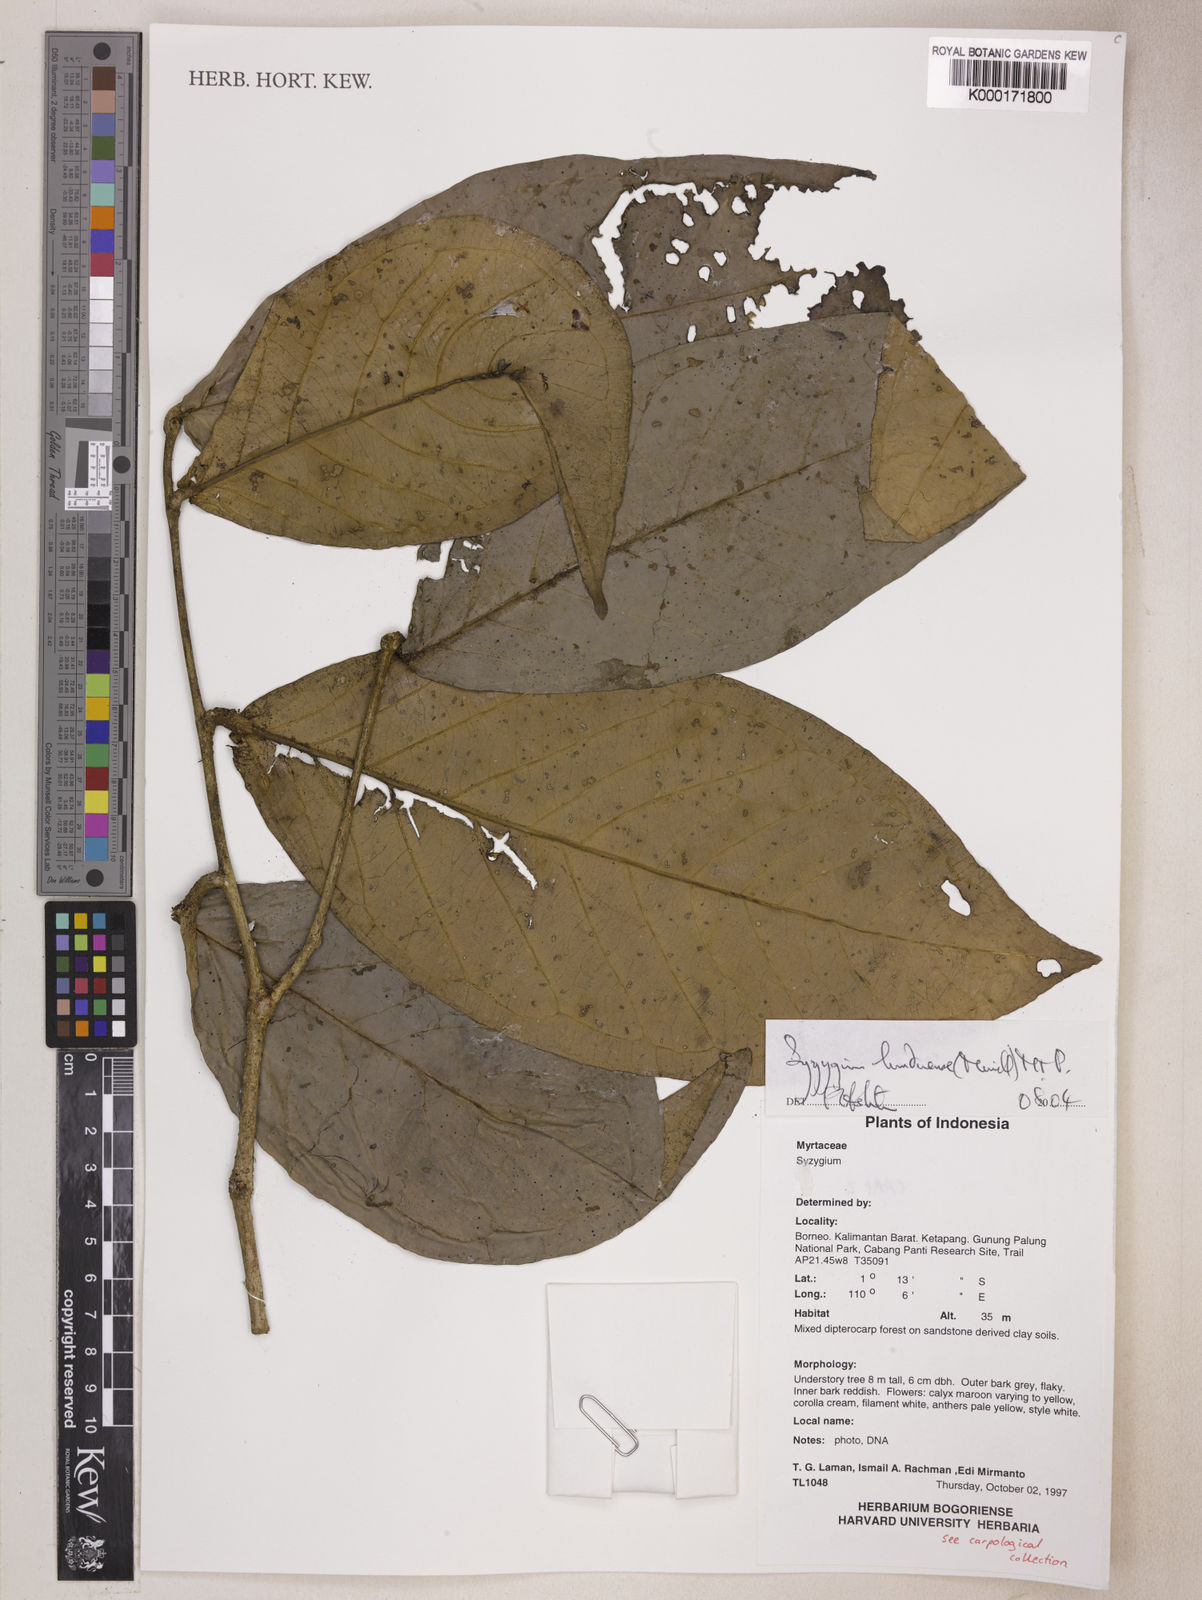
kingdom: Plantae
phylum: Tracheophyta
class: Magnoliopsida
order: Myrtales
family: Myrtaceae
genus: Syzygium
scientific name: Syzygium lunduense
